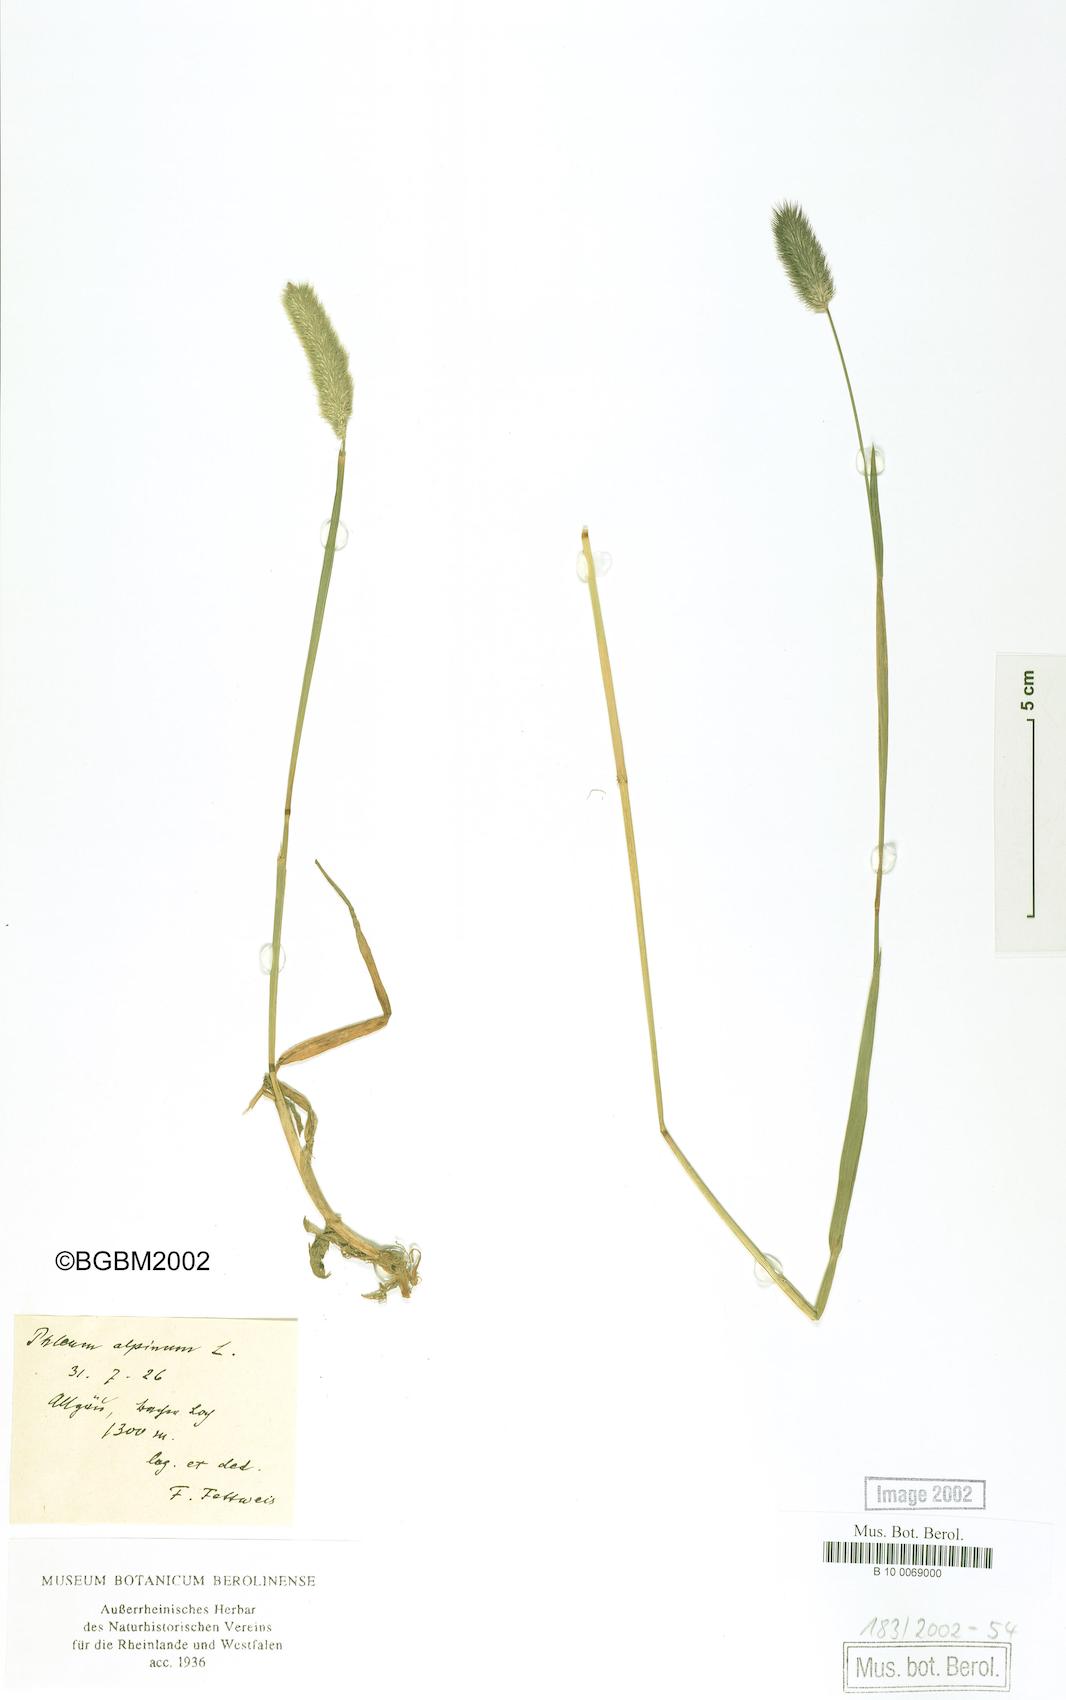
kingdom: Plantae
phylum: Tracheophyta
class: Liliopsida
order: Poales
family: Poaceae
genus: Phleum
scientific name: Phleum alpinum
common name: Alpine cat's-tail
